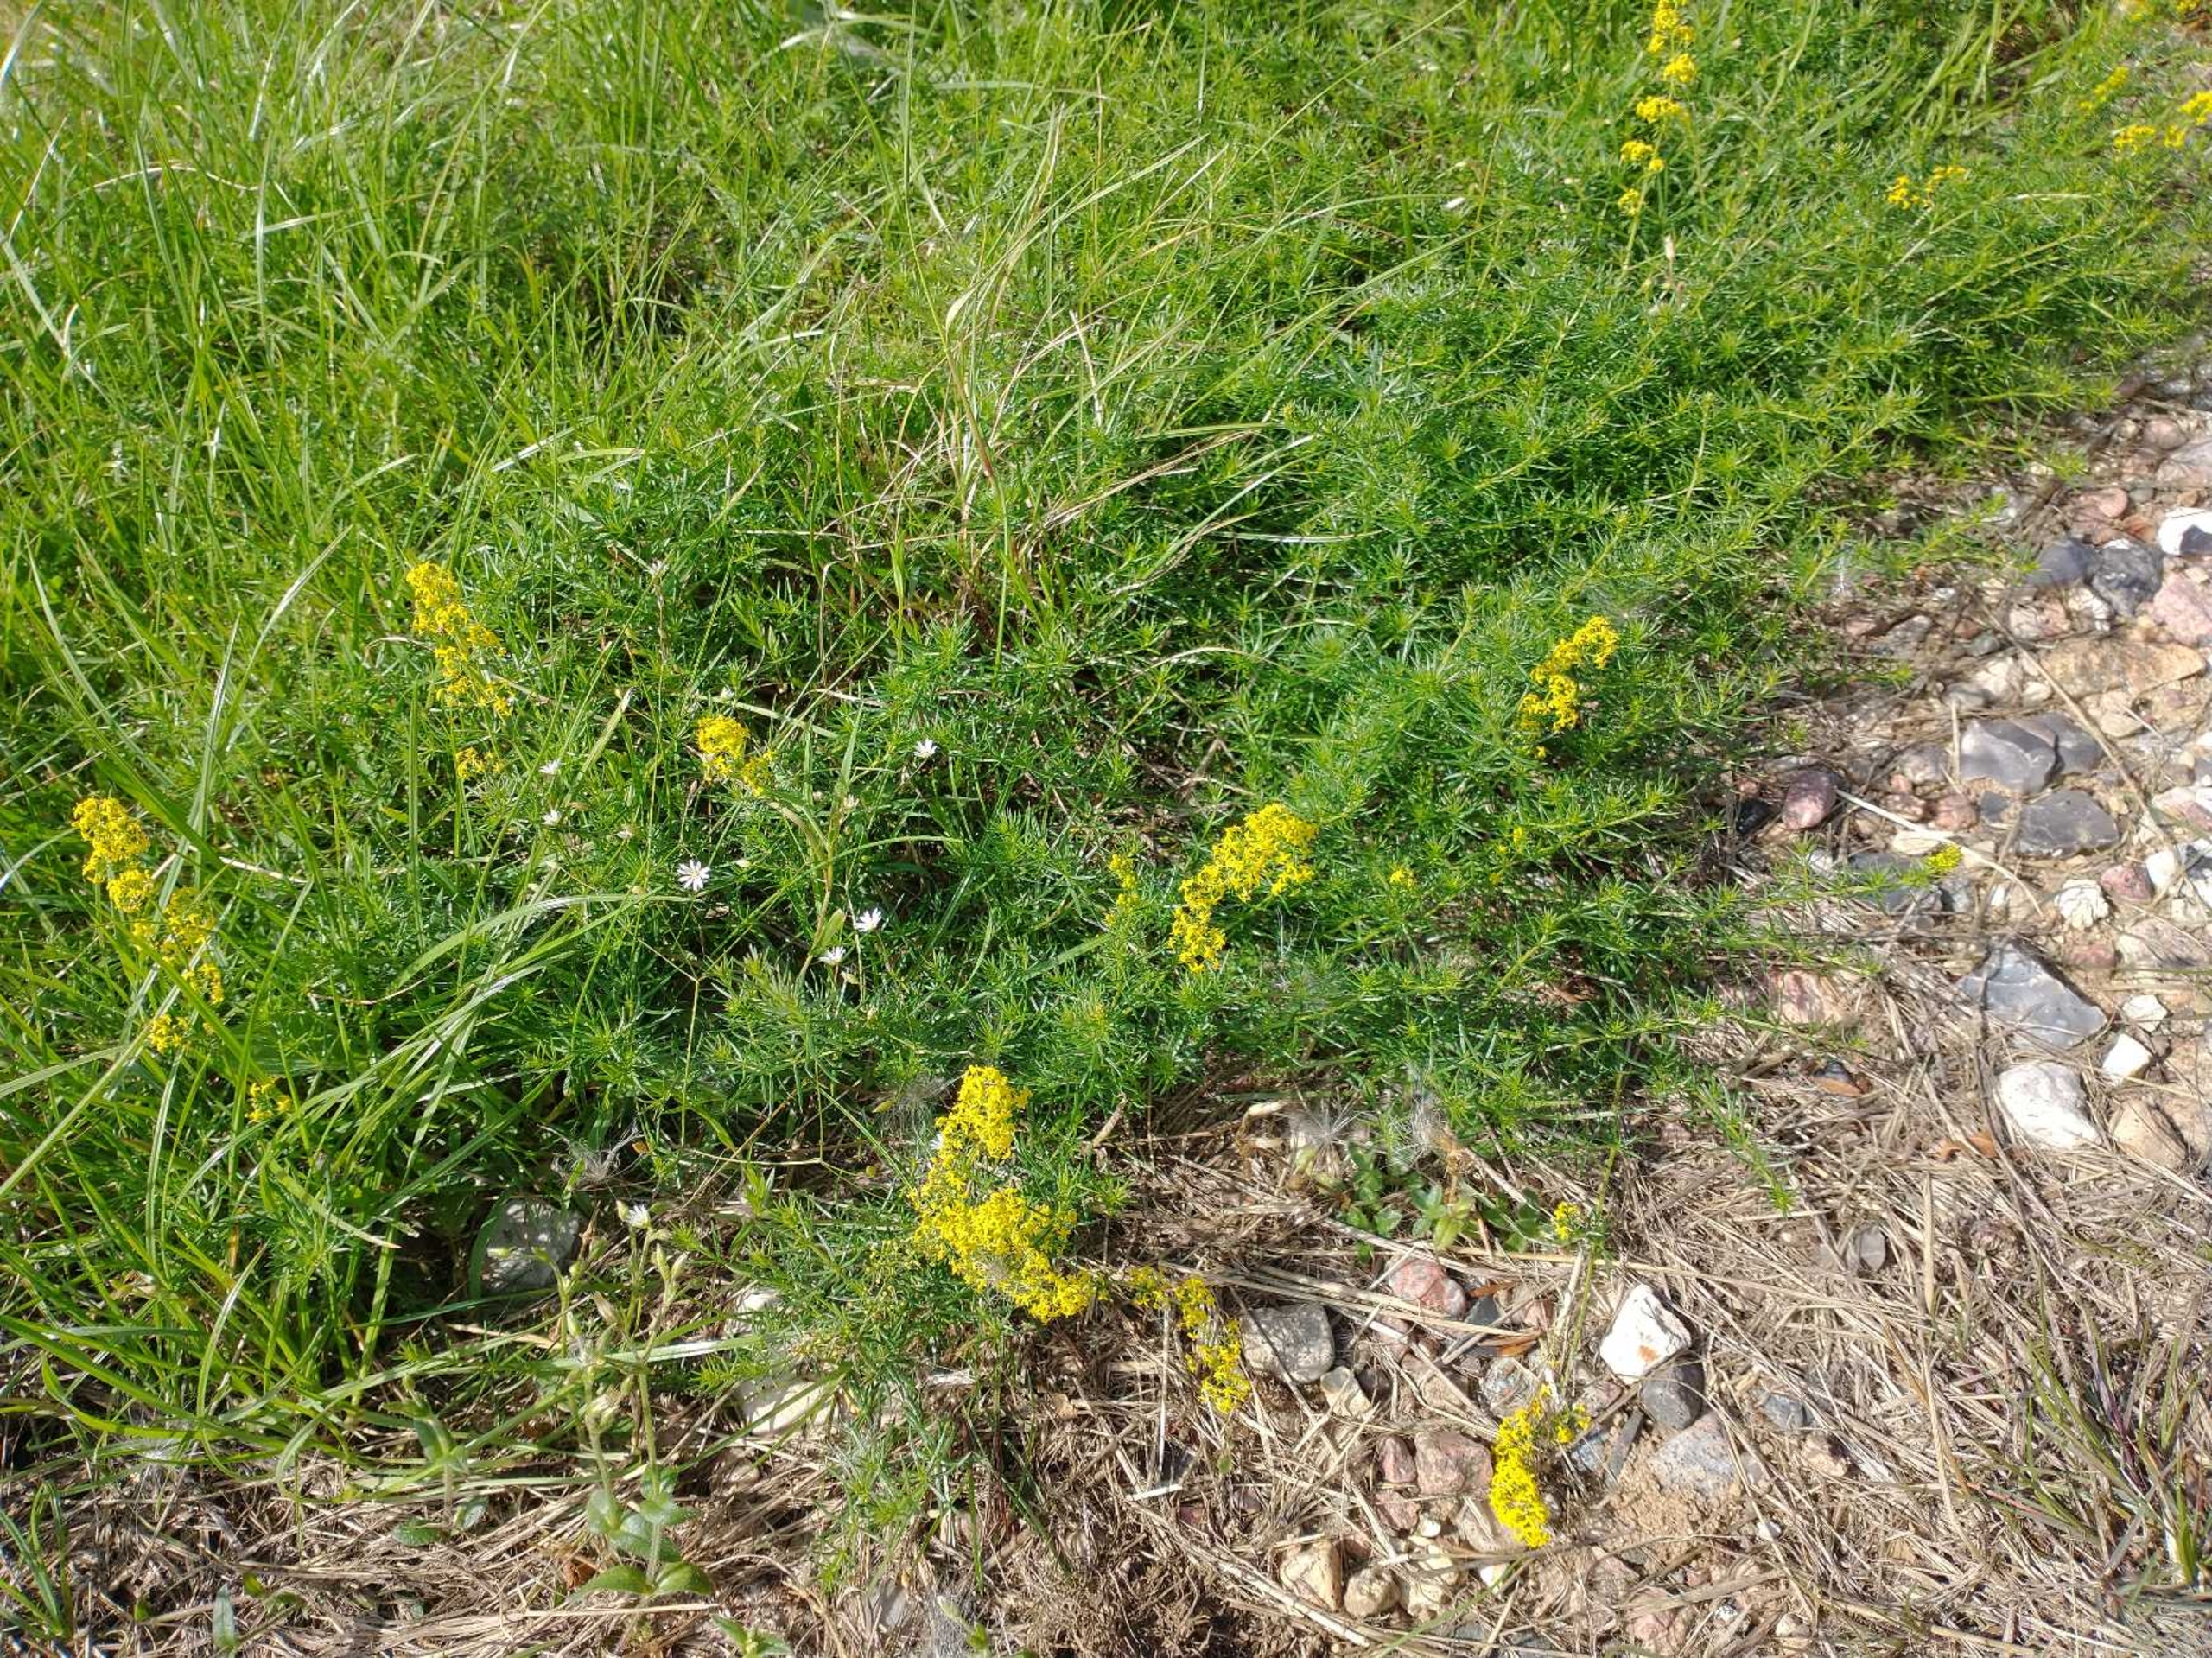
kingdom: Plantae
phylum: Tracheophyta
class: Magnoliopsida
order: Gentianales
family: Rubiaceae
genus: Galium
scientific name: Galium verum
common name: Gul snerre
